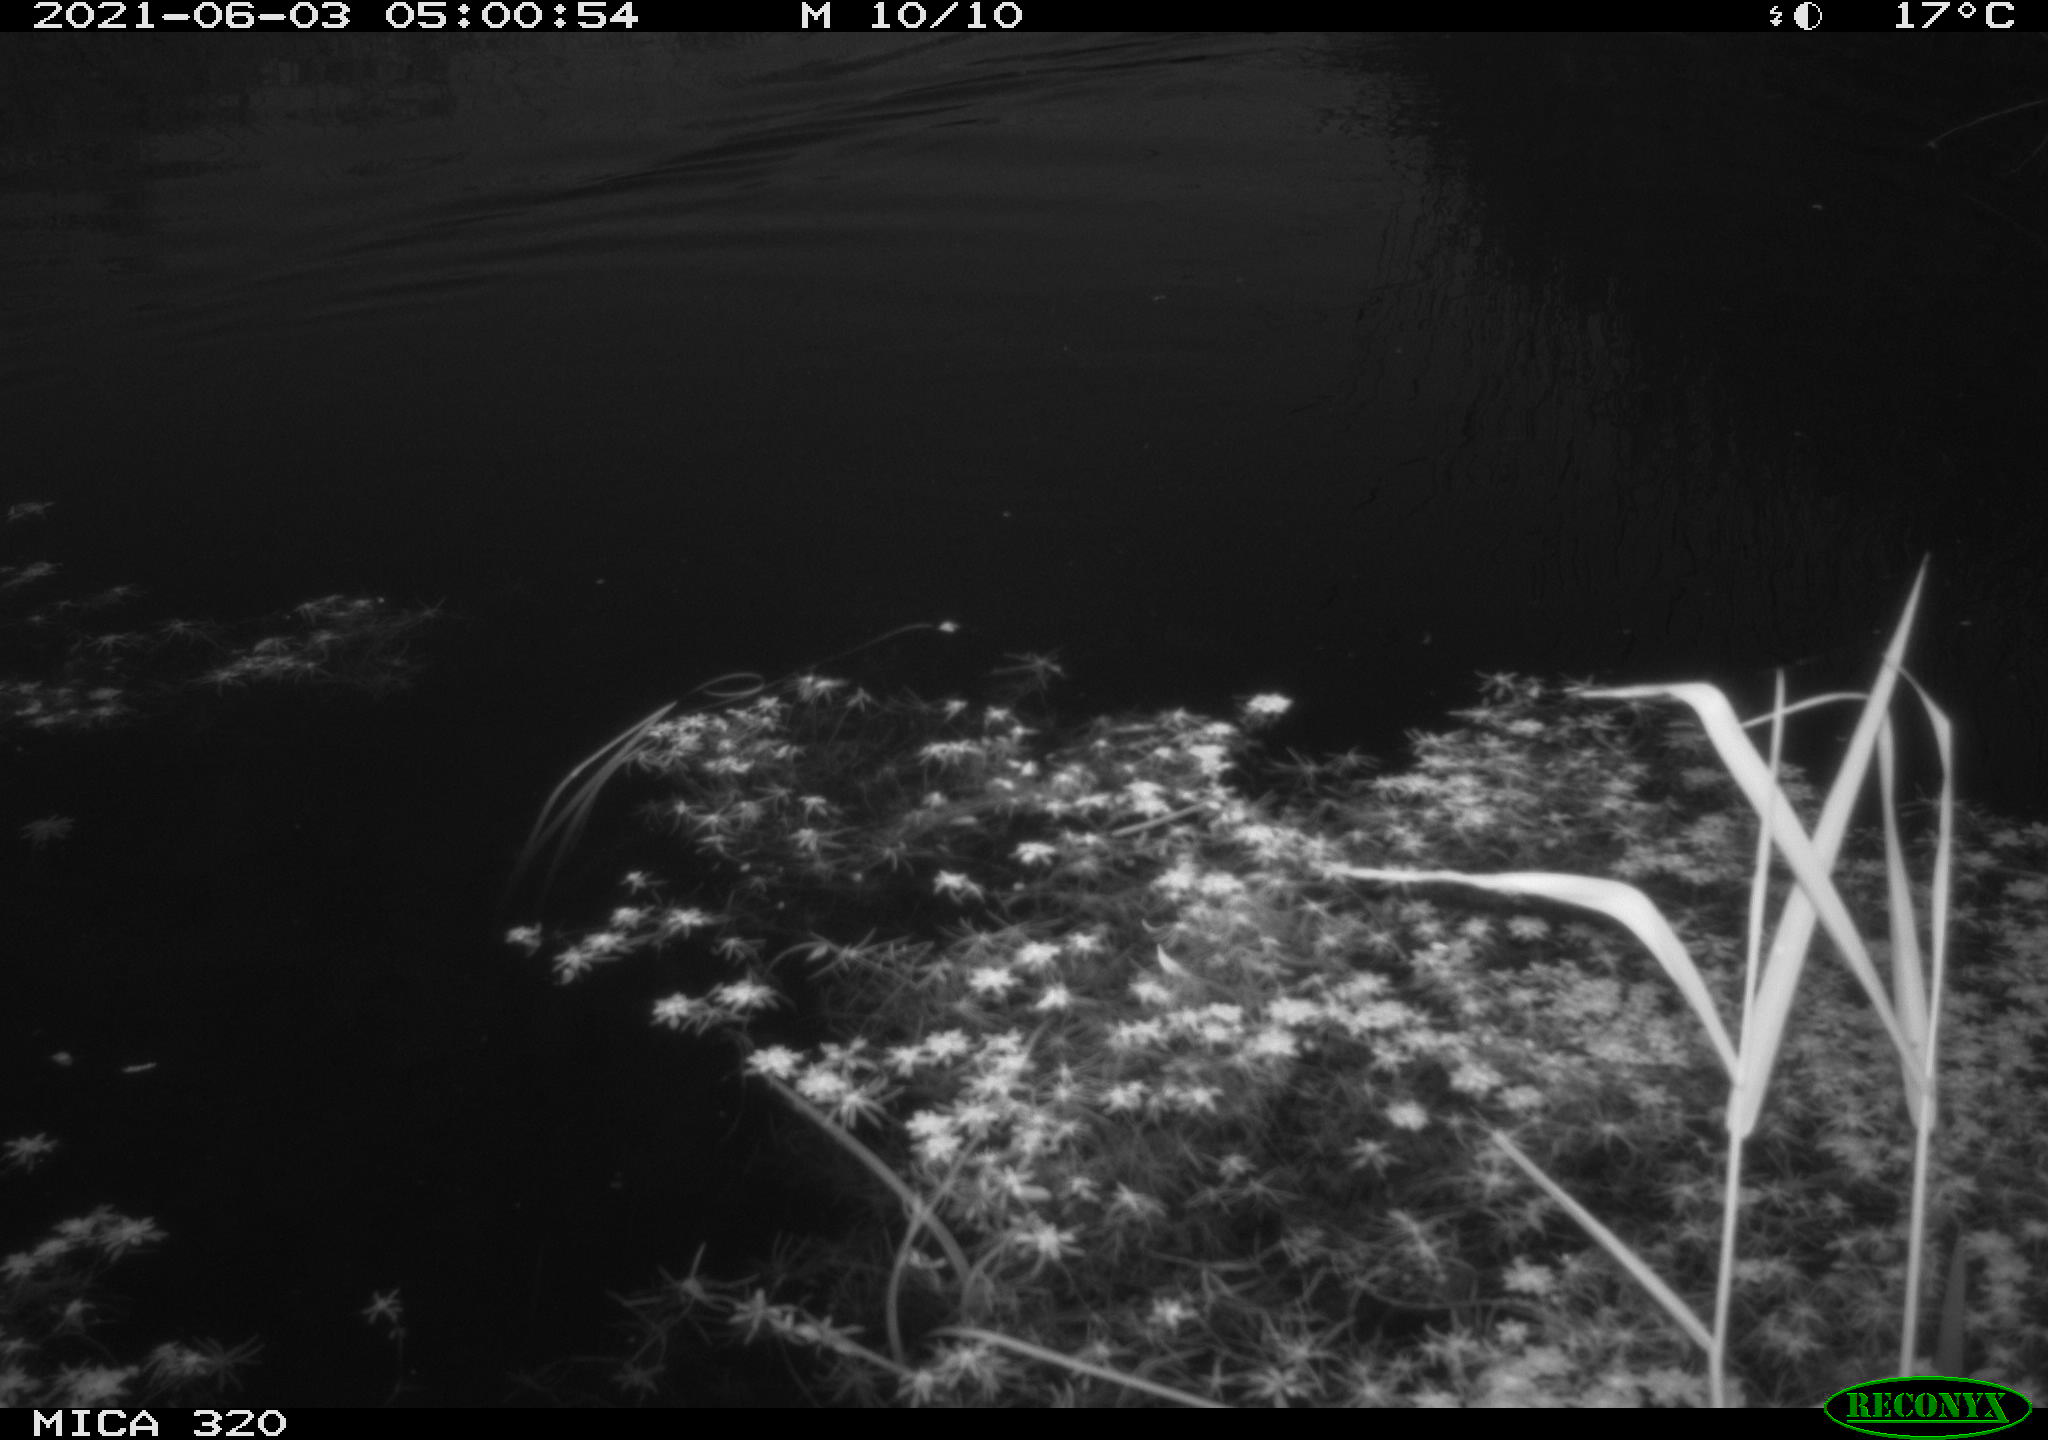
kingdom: Animalia
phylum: Chordata
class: Aves
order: Anseriformes
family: Anatidae
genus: Mareca
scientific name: Mareca strepera
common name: Gadwall
